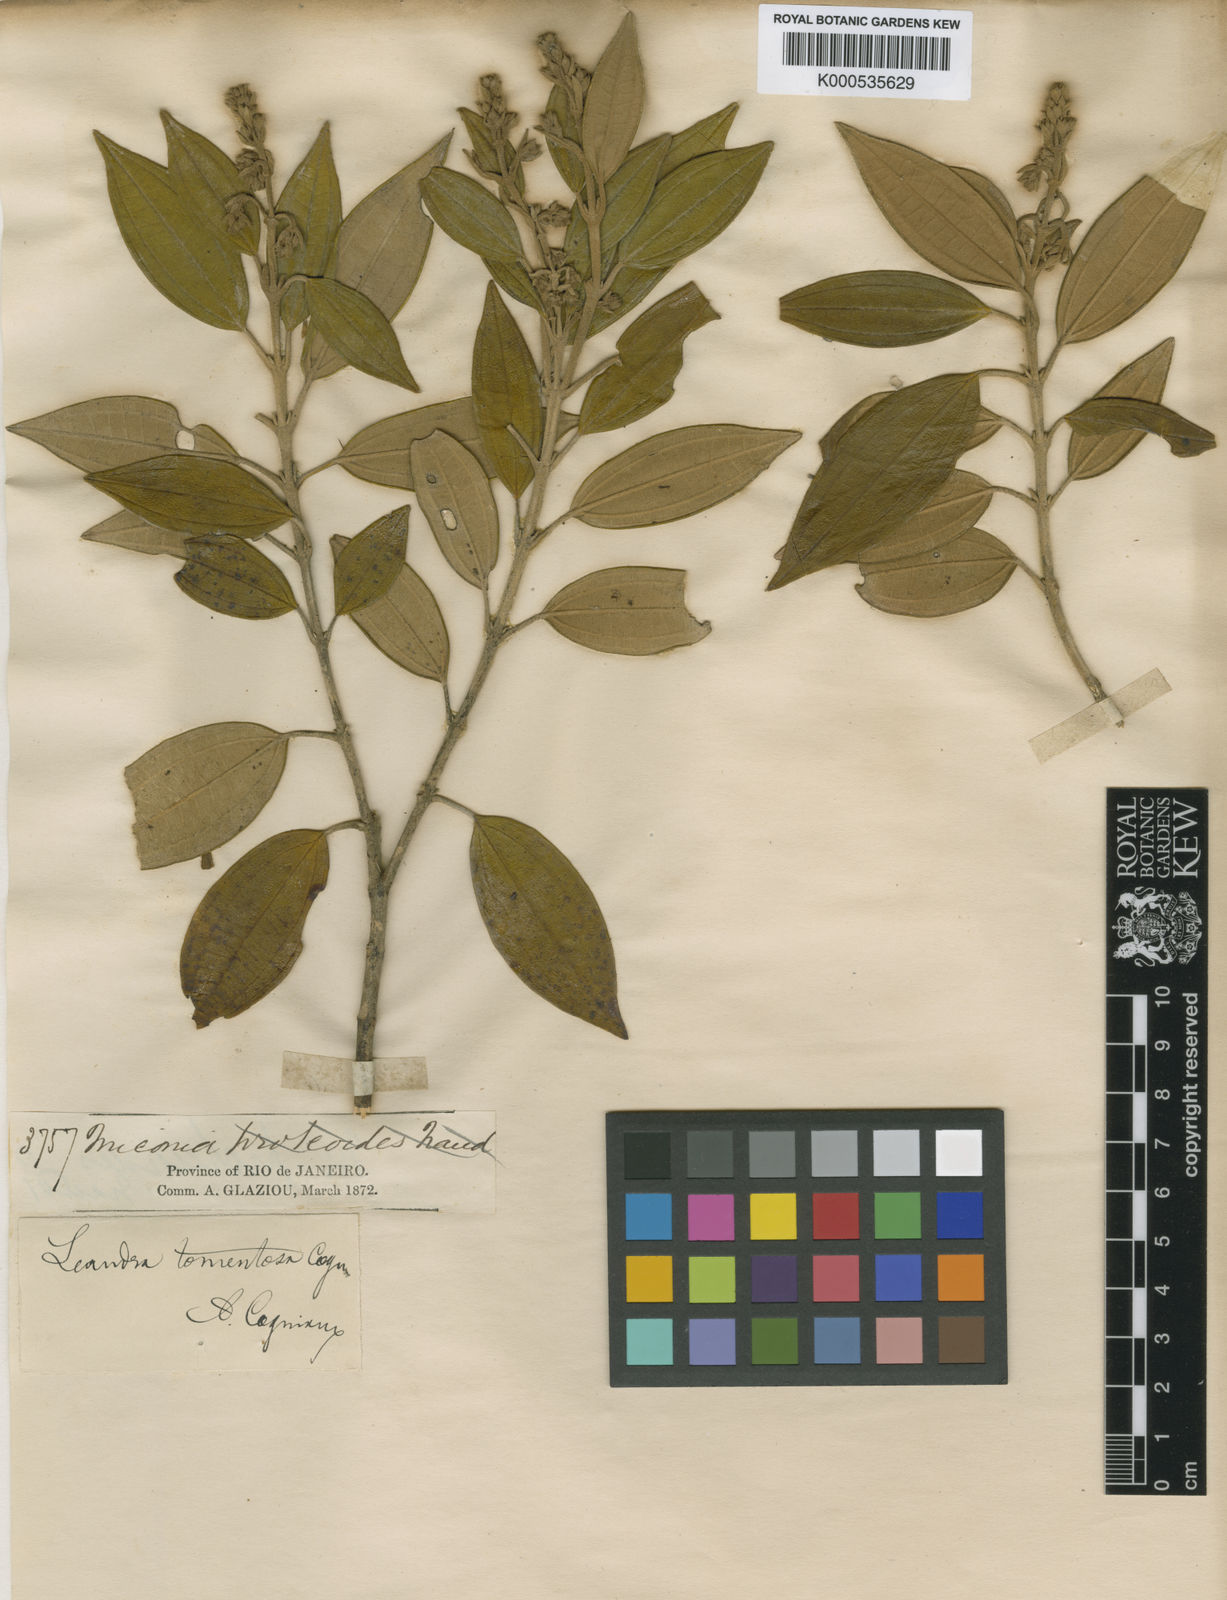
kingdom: Plantae
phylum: Tracheophyta
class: Magnoliopsida
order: Myrtales
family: Melastomataceae
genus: Miconia
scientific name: Miconia leatomentosa
